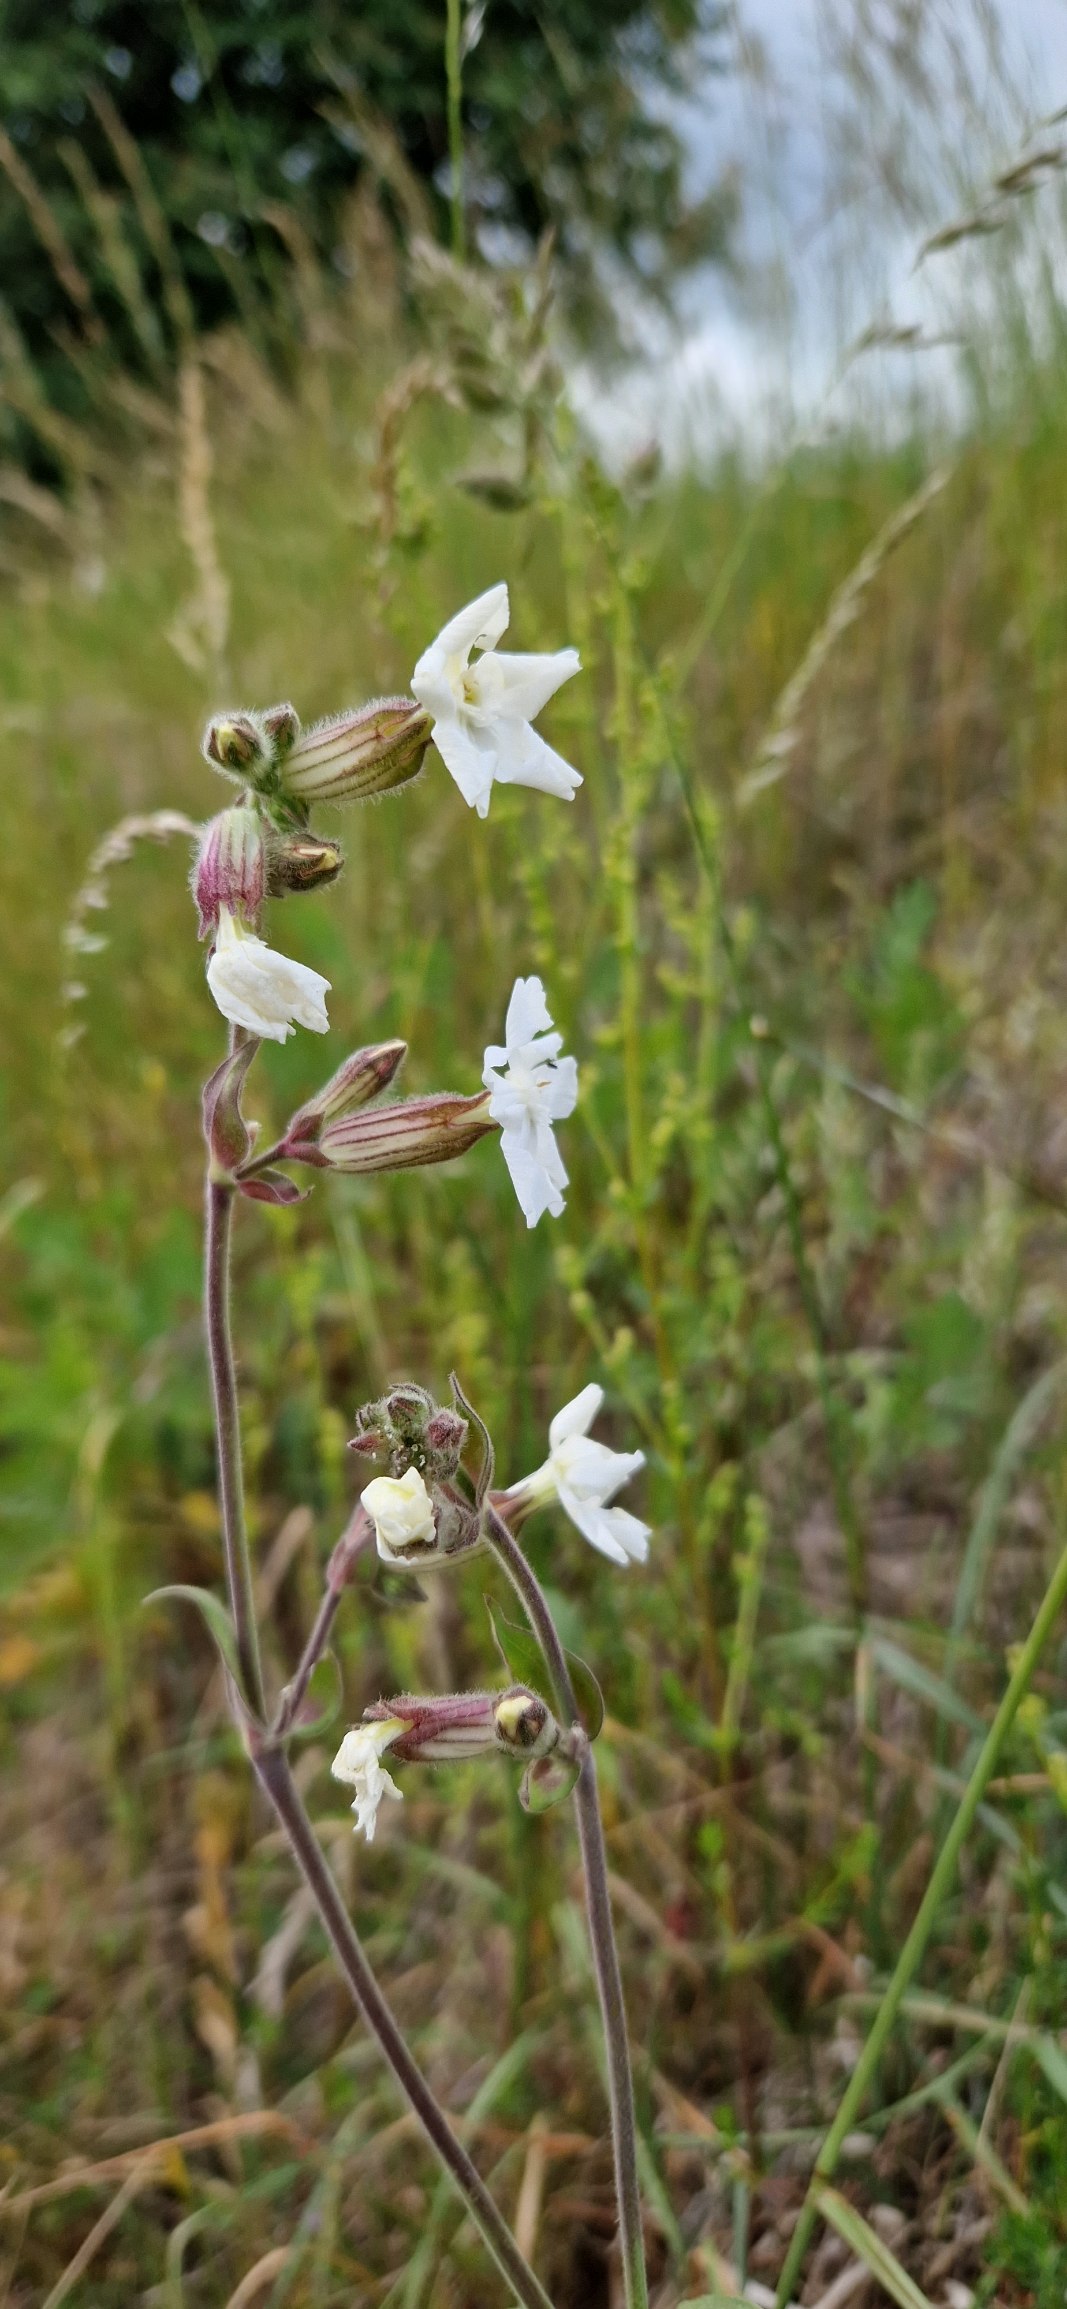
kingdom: Plantae
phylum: Tracheophyta
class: Magnoliopsida
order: Caryophyllales
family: Caryophyllaceae
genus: Silene
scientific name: Silene latifolia
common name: Aftenpragtstjerne
